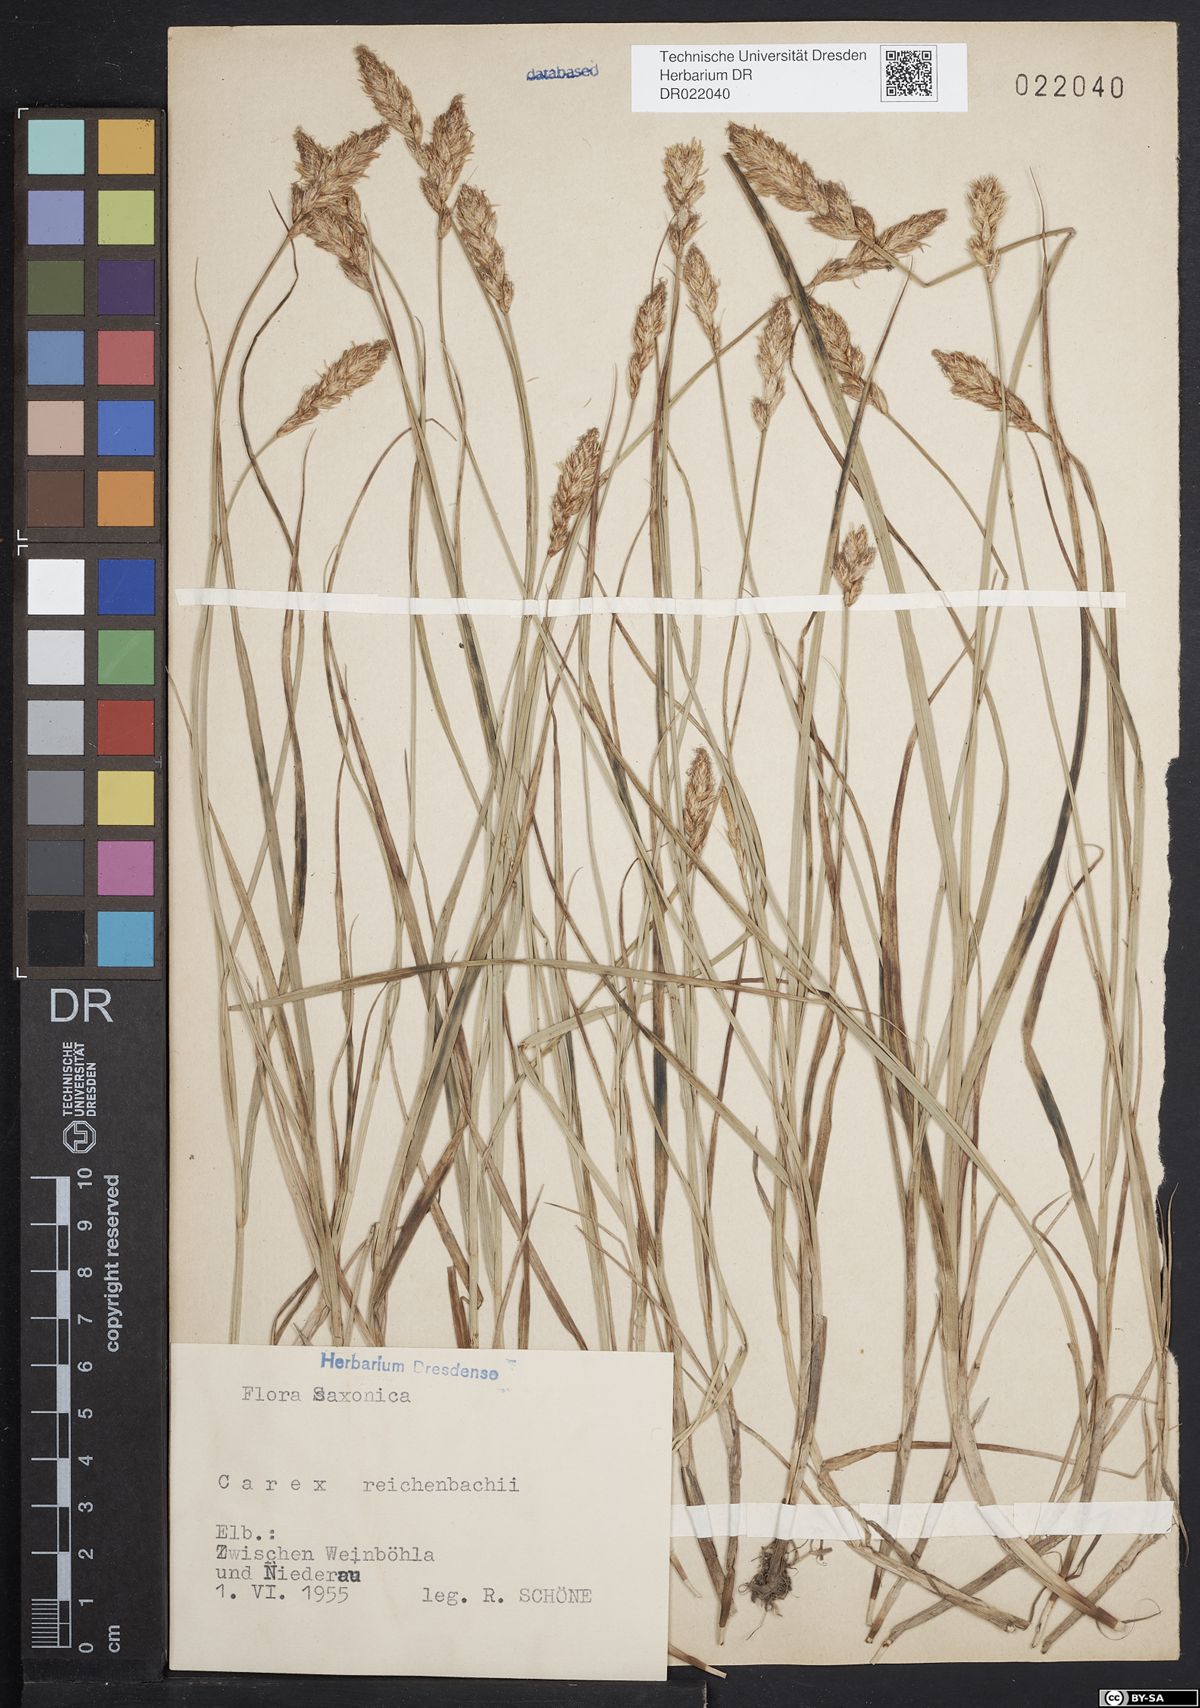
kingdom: Plantae
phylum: Tracheophyta
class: Liliopsida
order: Poales
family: Cyperaceae
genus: Carex
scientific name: Carex pseudobrizoides
